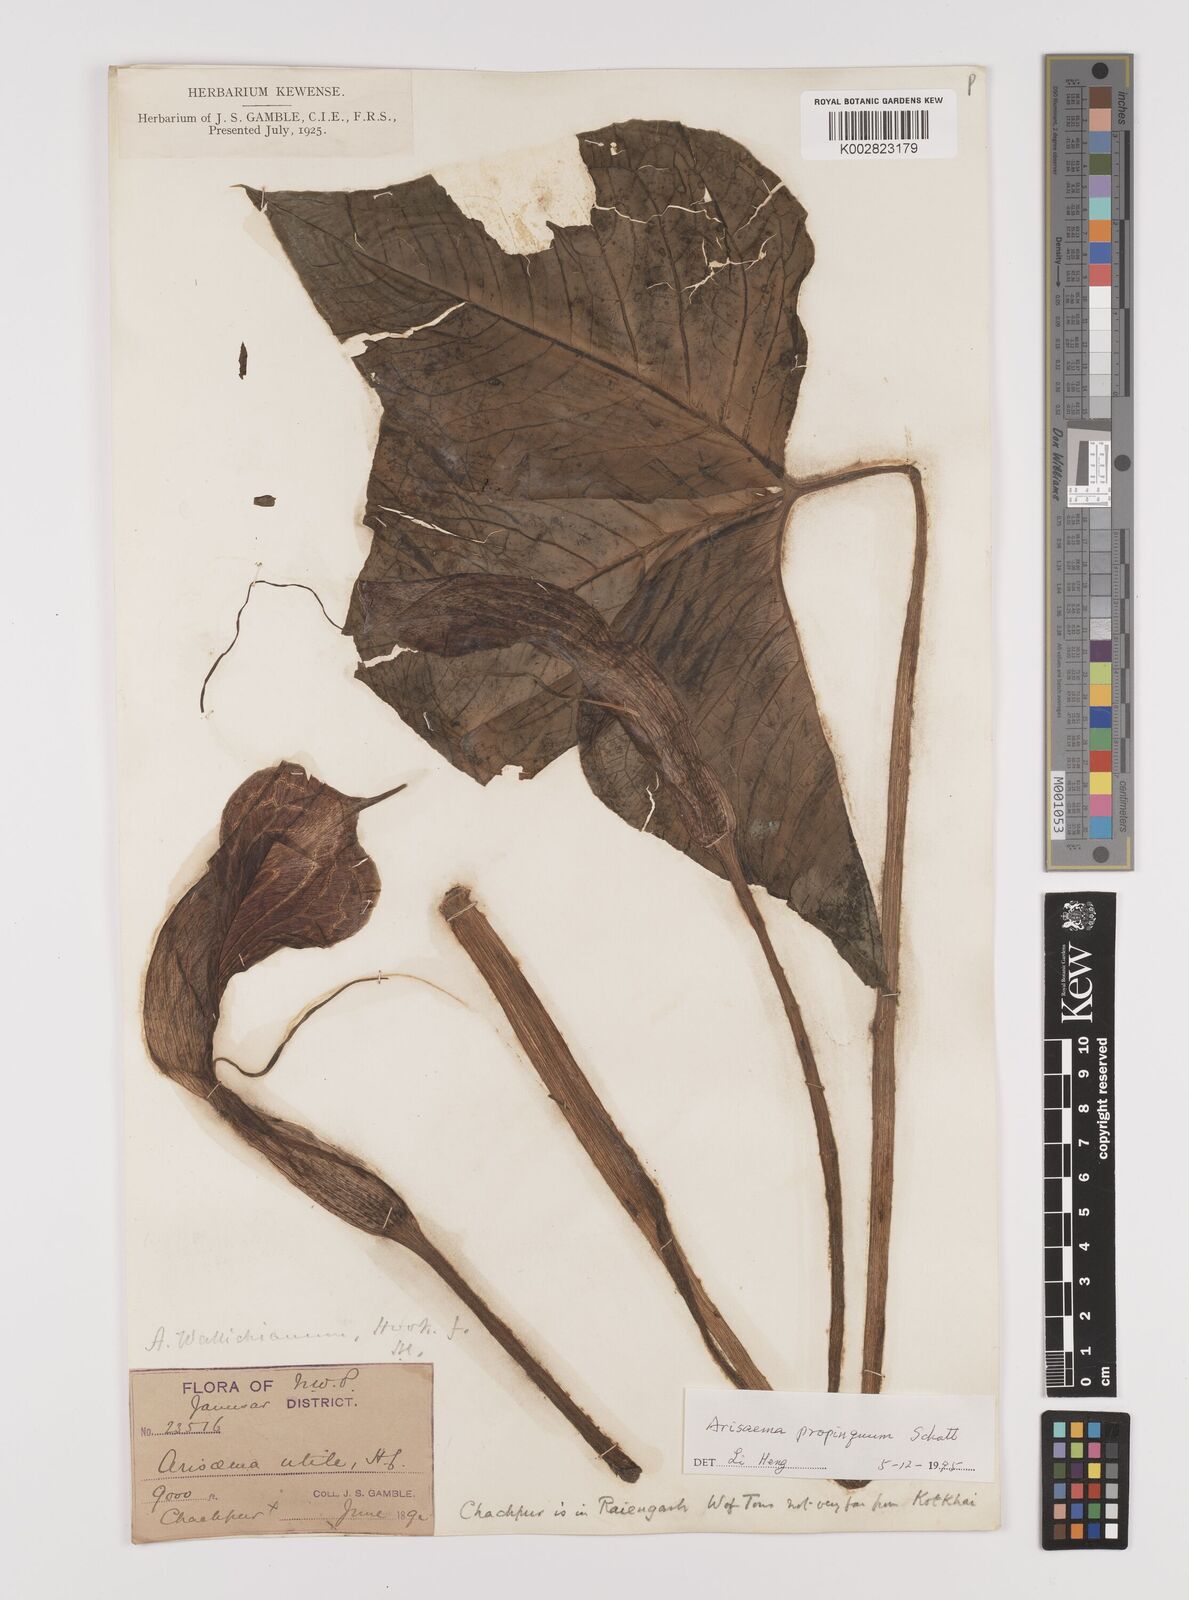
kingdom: Plantae
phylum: Tracheophyta
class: Liliopsida
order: Alismatales
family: Araceae
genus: Arisaema
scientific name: Arisaema propinquum
